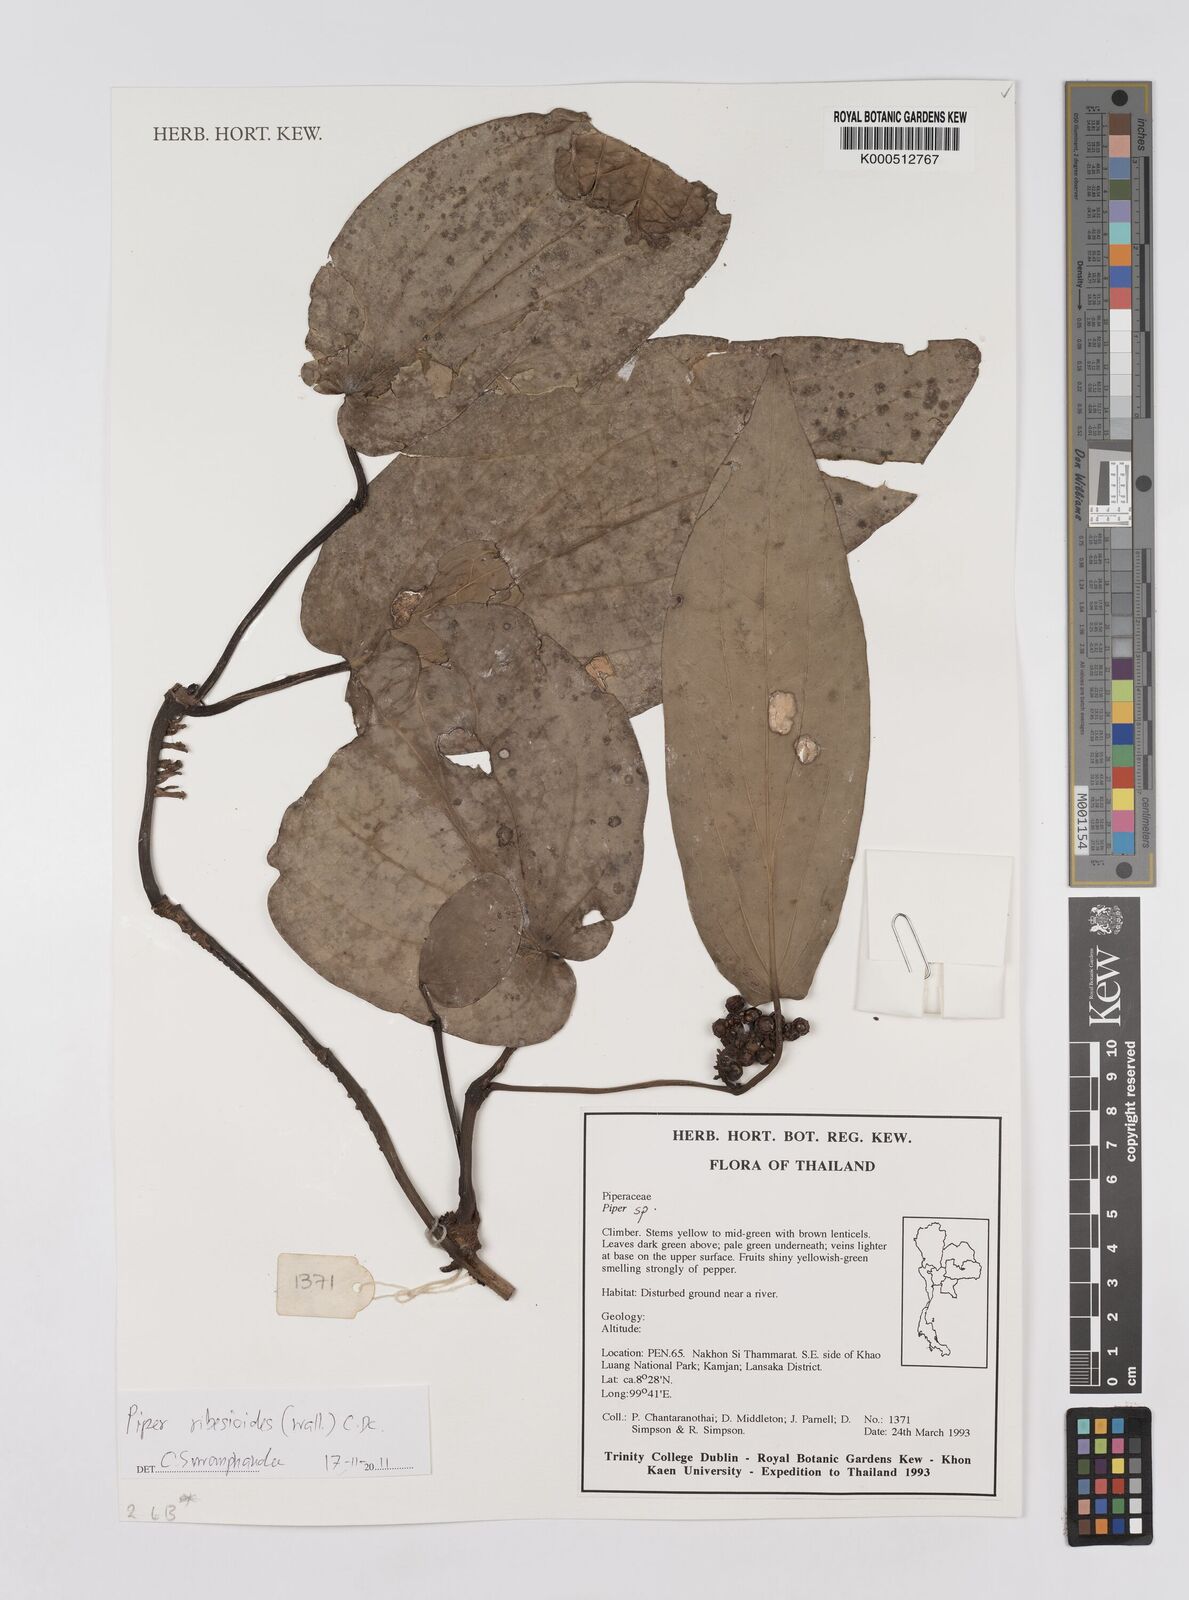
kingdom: Plantae
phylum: Tracheophyta
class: Magnoliopsida
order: Piperales
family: Piperaceae
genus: Piper
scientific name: Piper
